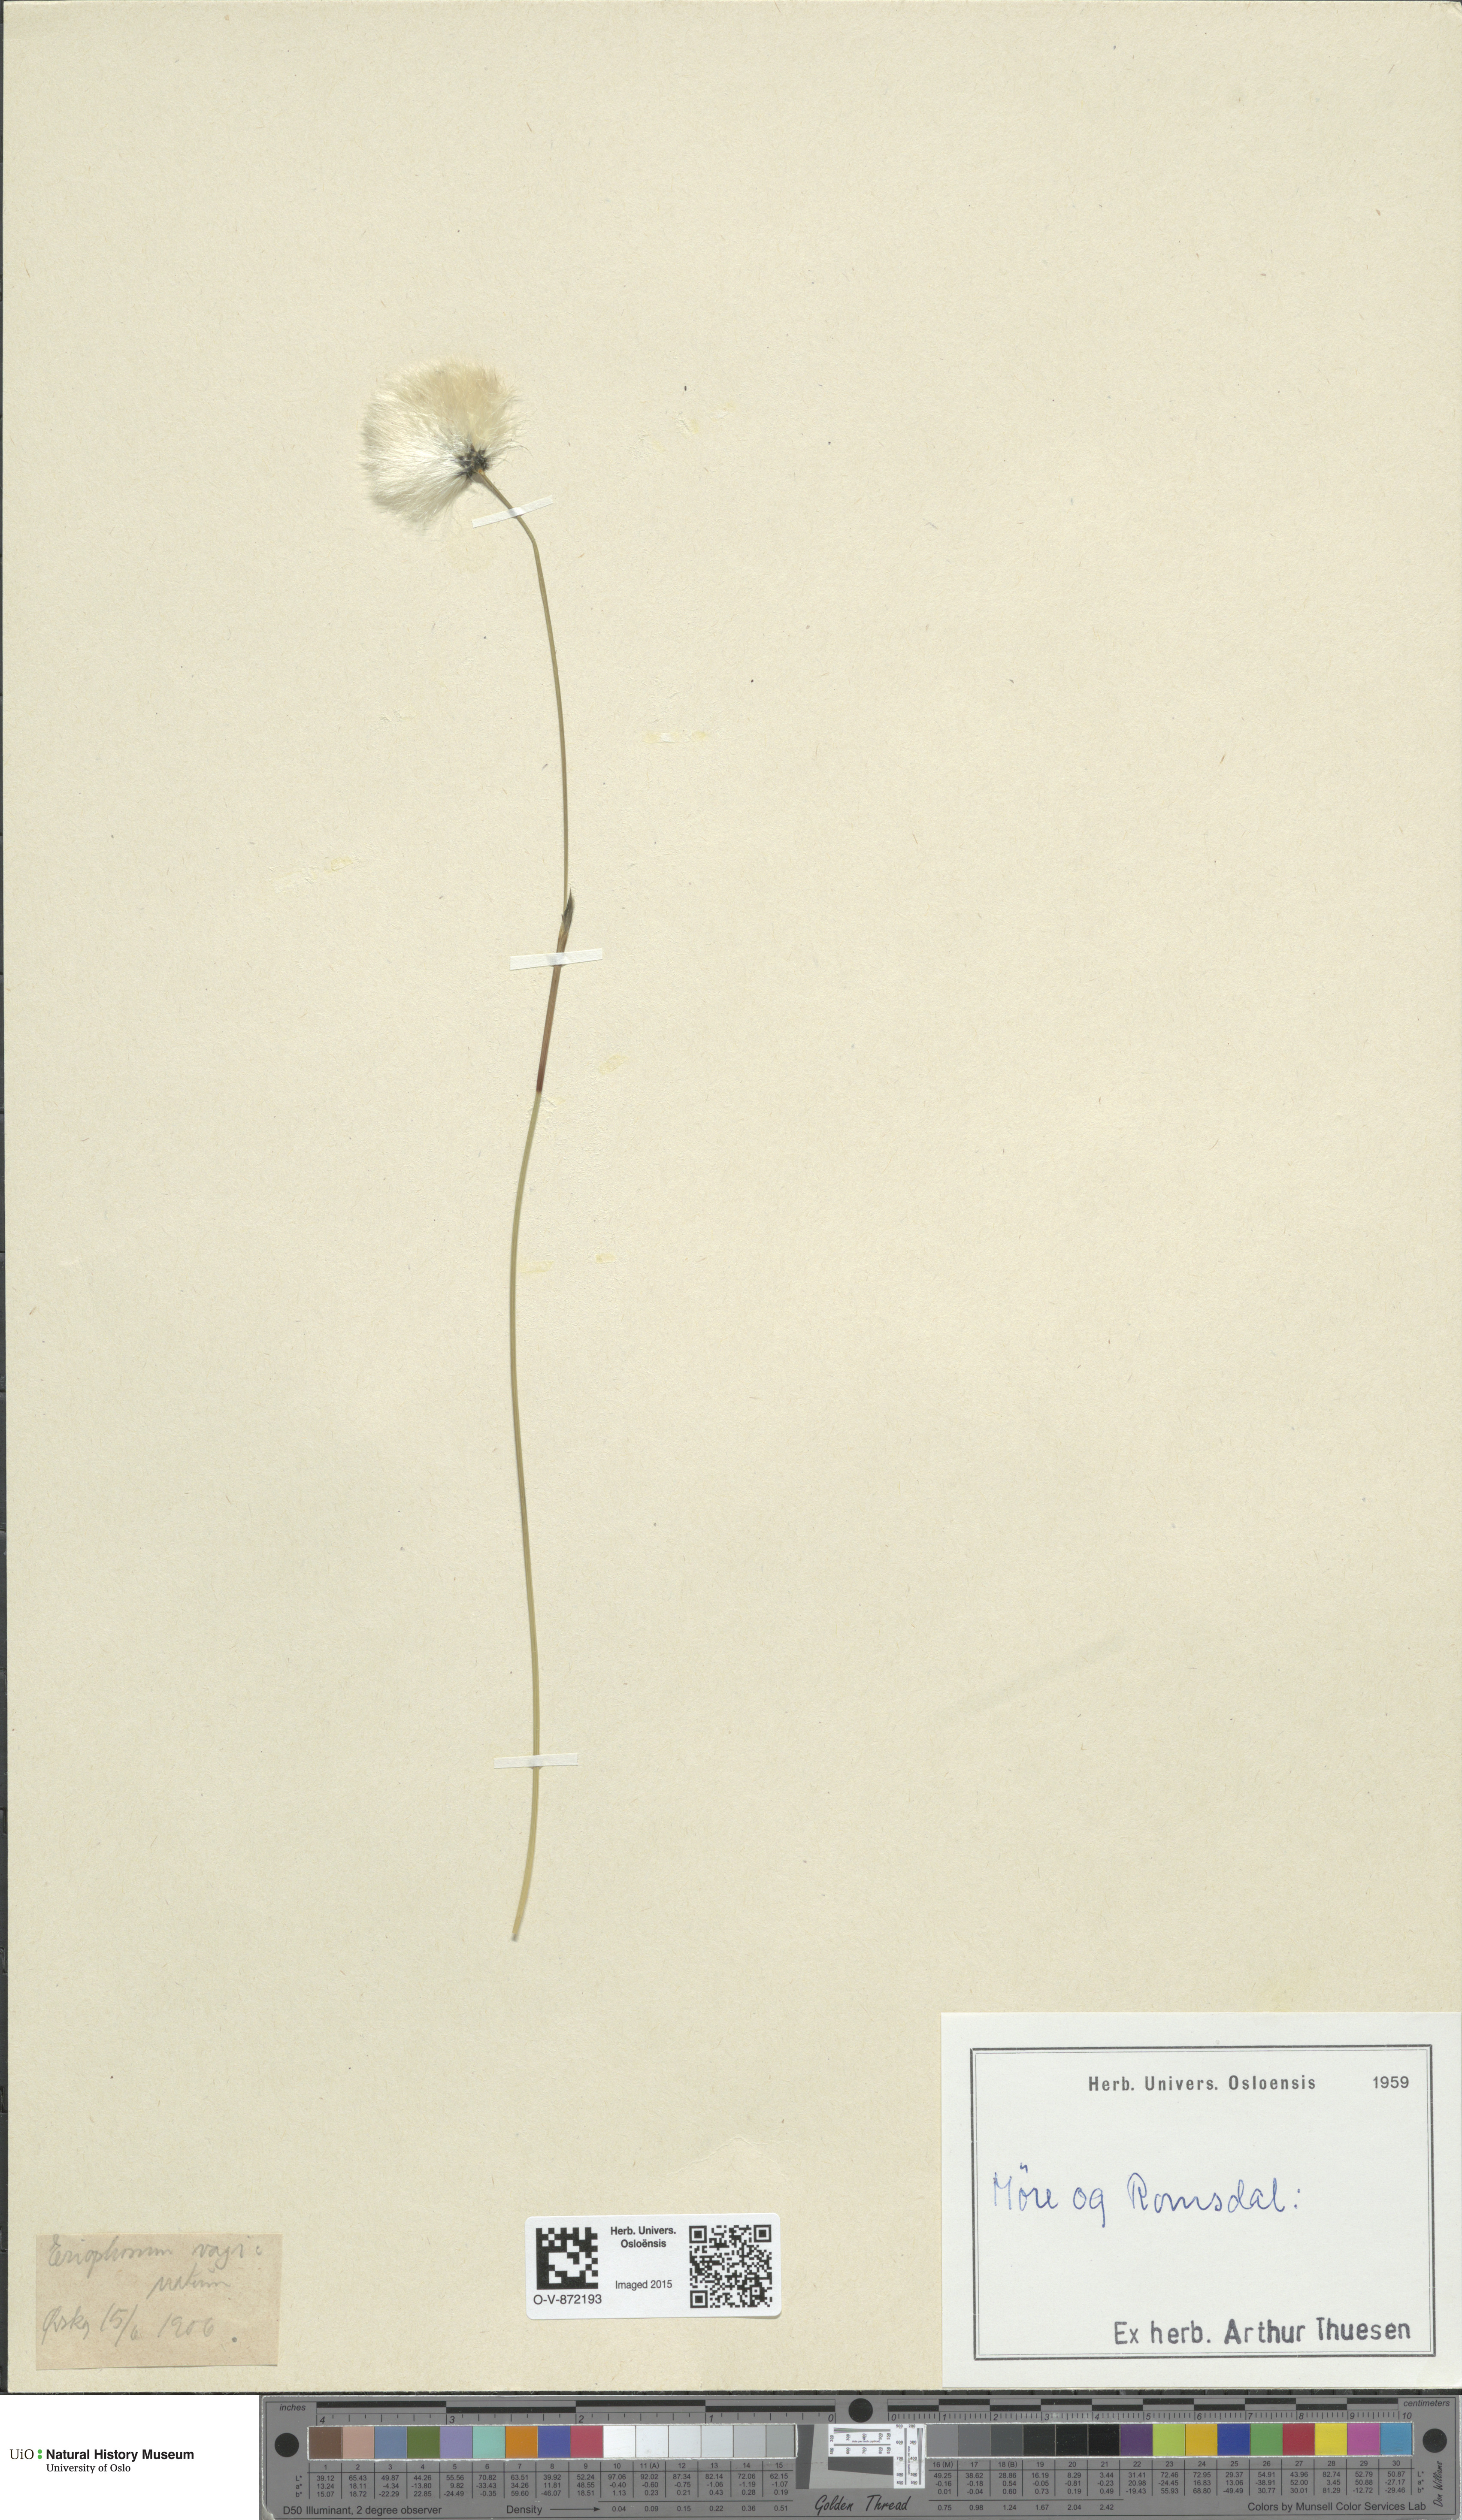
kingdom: Plantae
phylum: Tracheophyta
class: Liliopsida
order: Poales
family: Cyperaceae
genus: Eriophorum
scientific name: Eriophorum vaginatum
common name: Hare's-tail cottongrass
